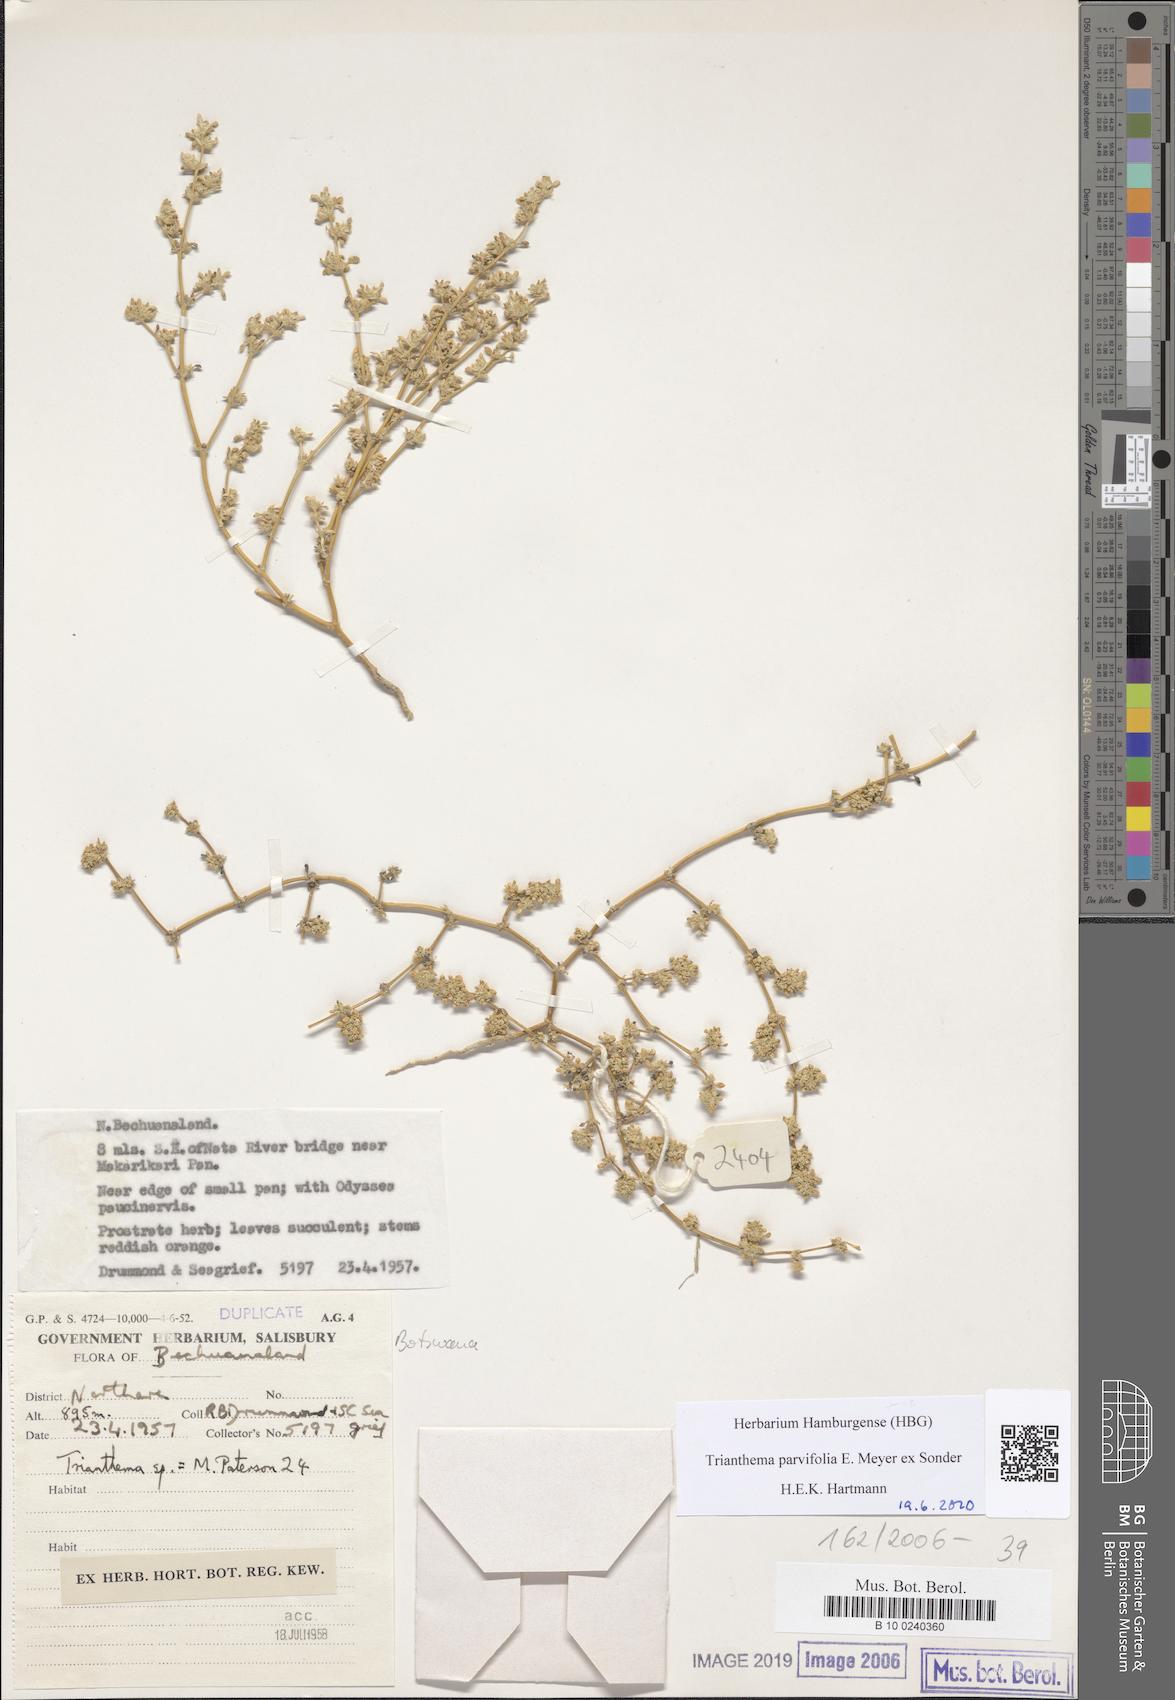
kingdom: Plantae
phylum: Tracheophyta
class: Magnoliopsida
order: Caryophyllales
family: Aizoaceae
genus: Trianthema
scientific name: Trianthema
